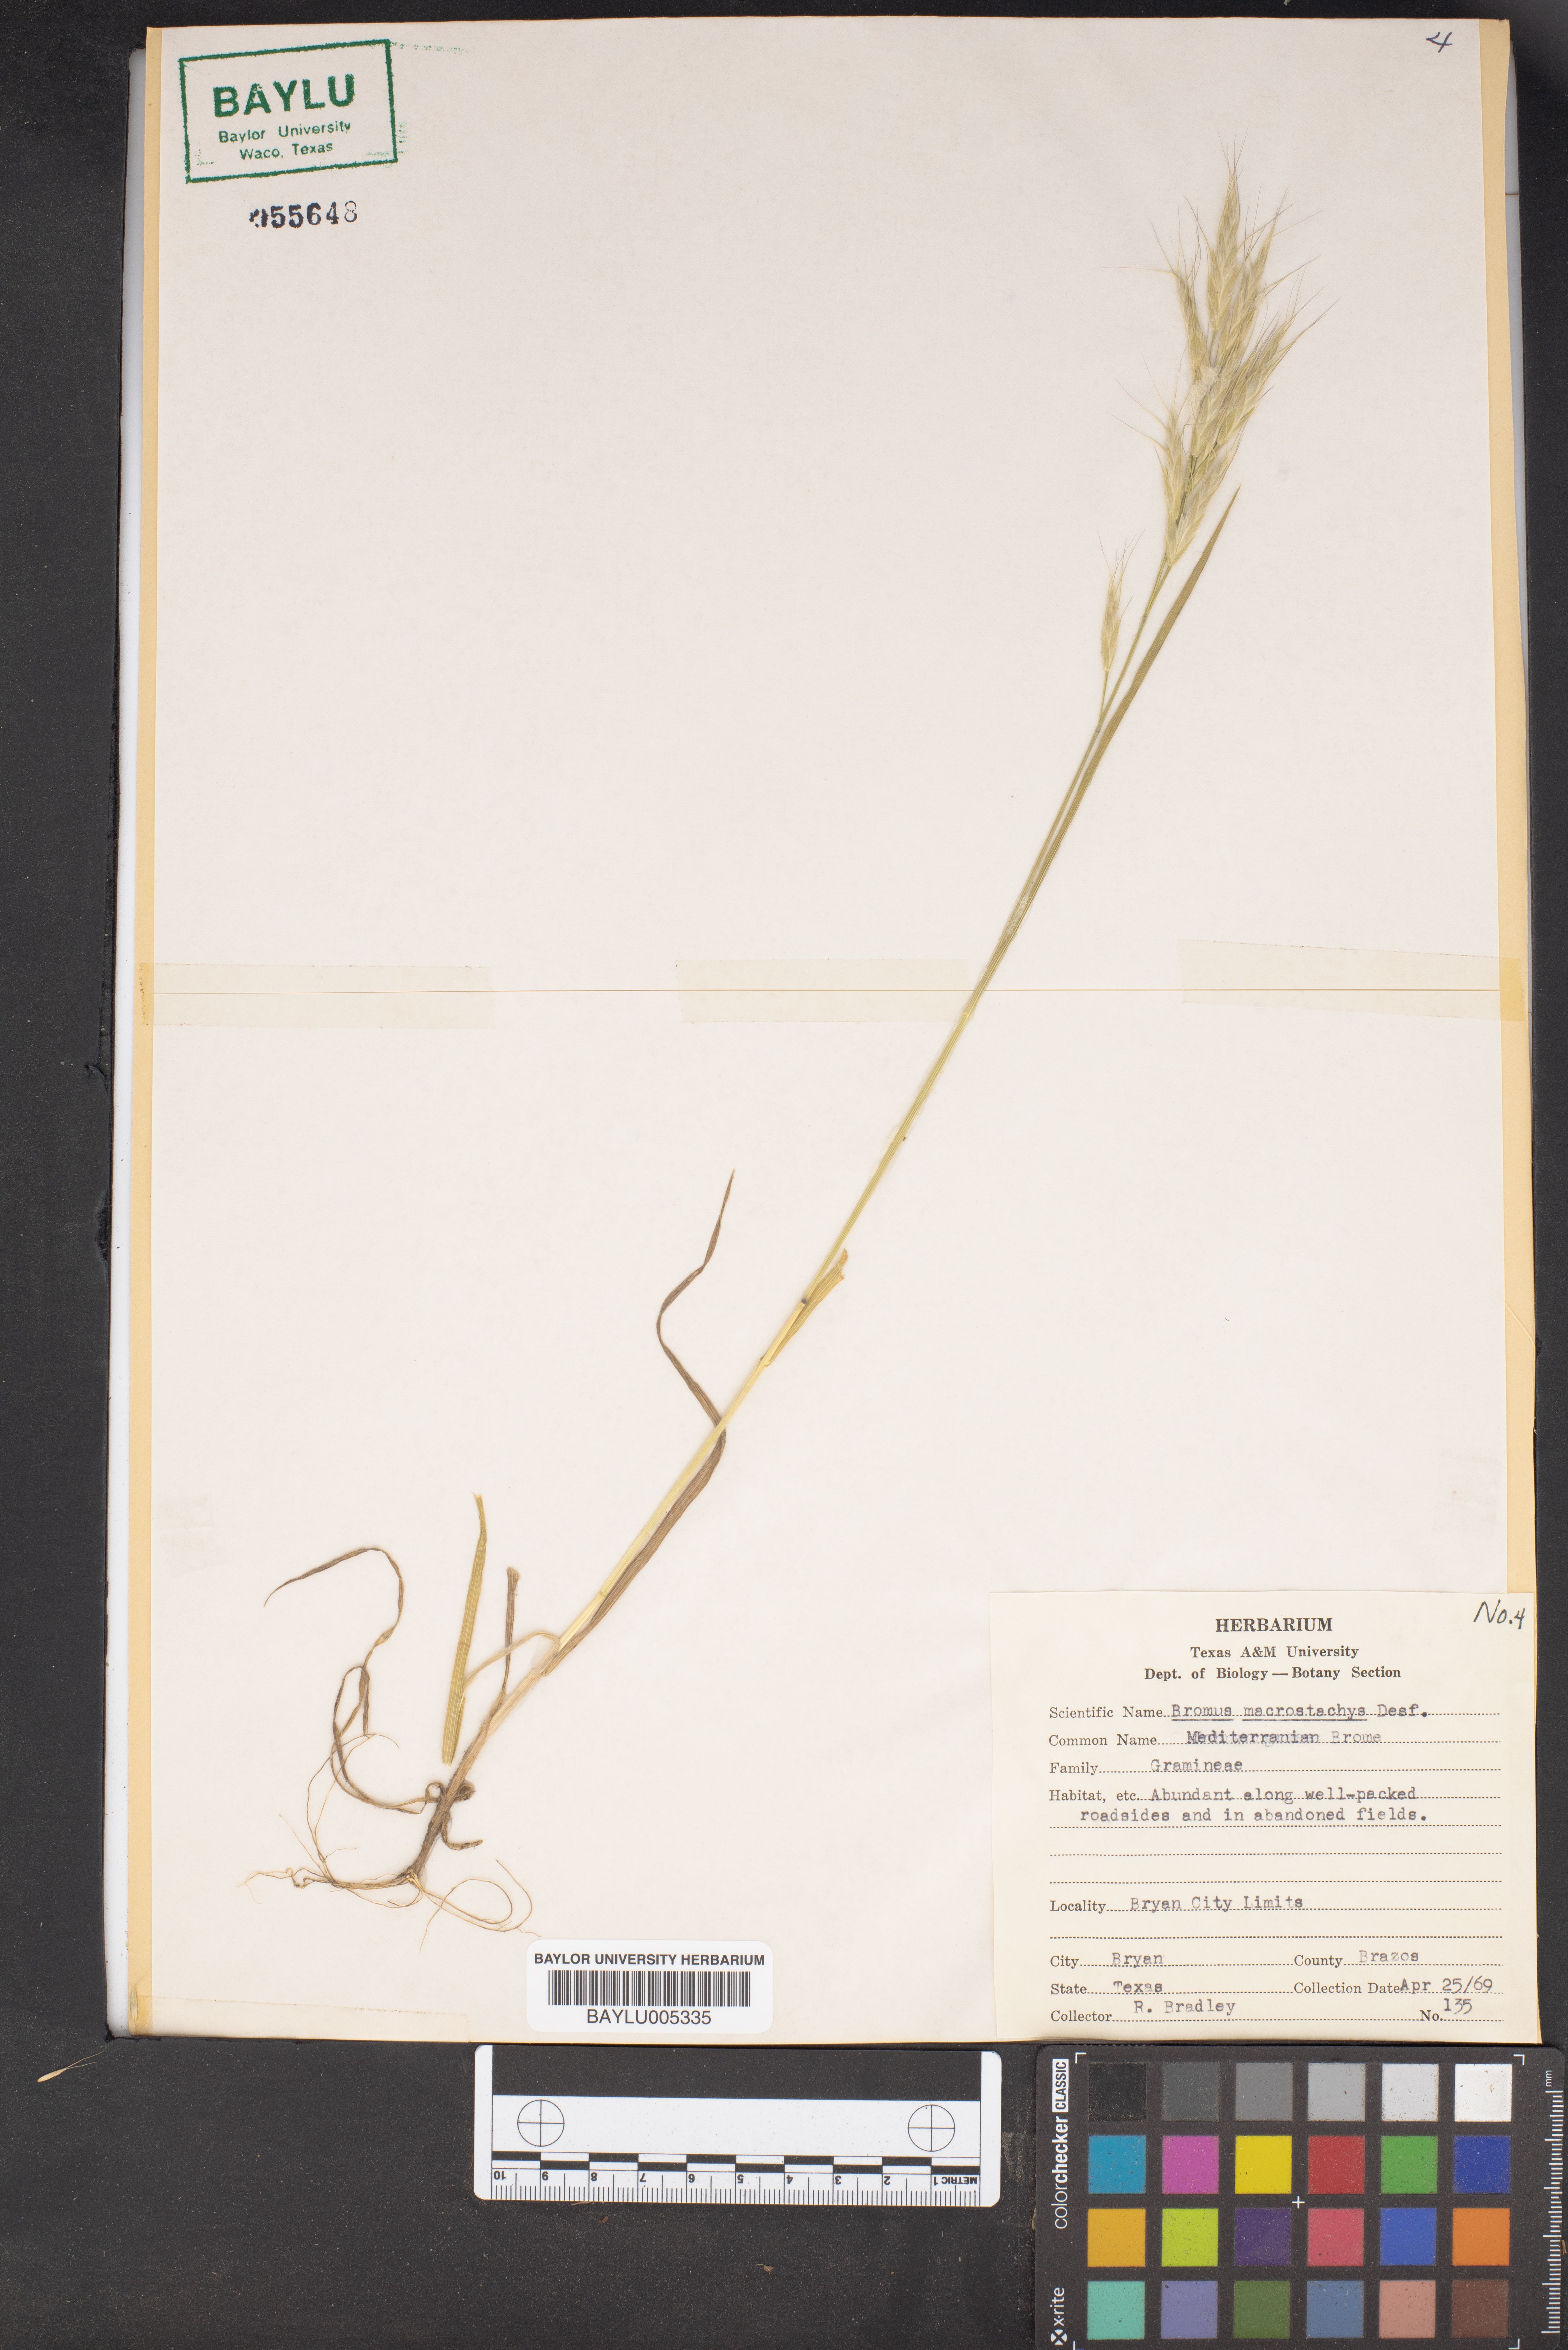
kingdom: Plantae
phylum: Tracheophyta
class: Liliopsida
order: Poales
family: Poaceae
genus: Bromus
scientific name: Bromus lanceolatus
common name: Mediterranean brome
